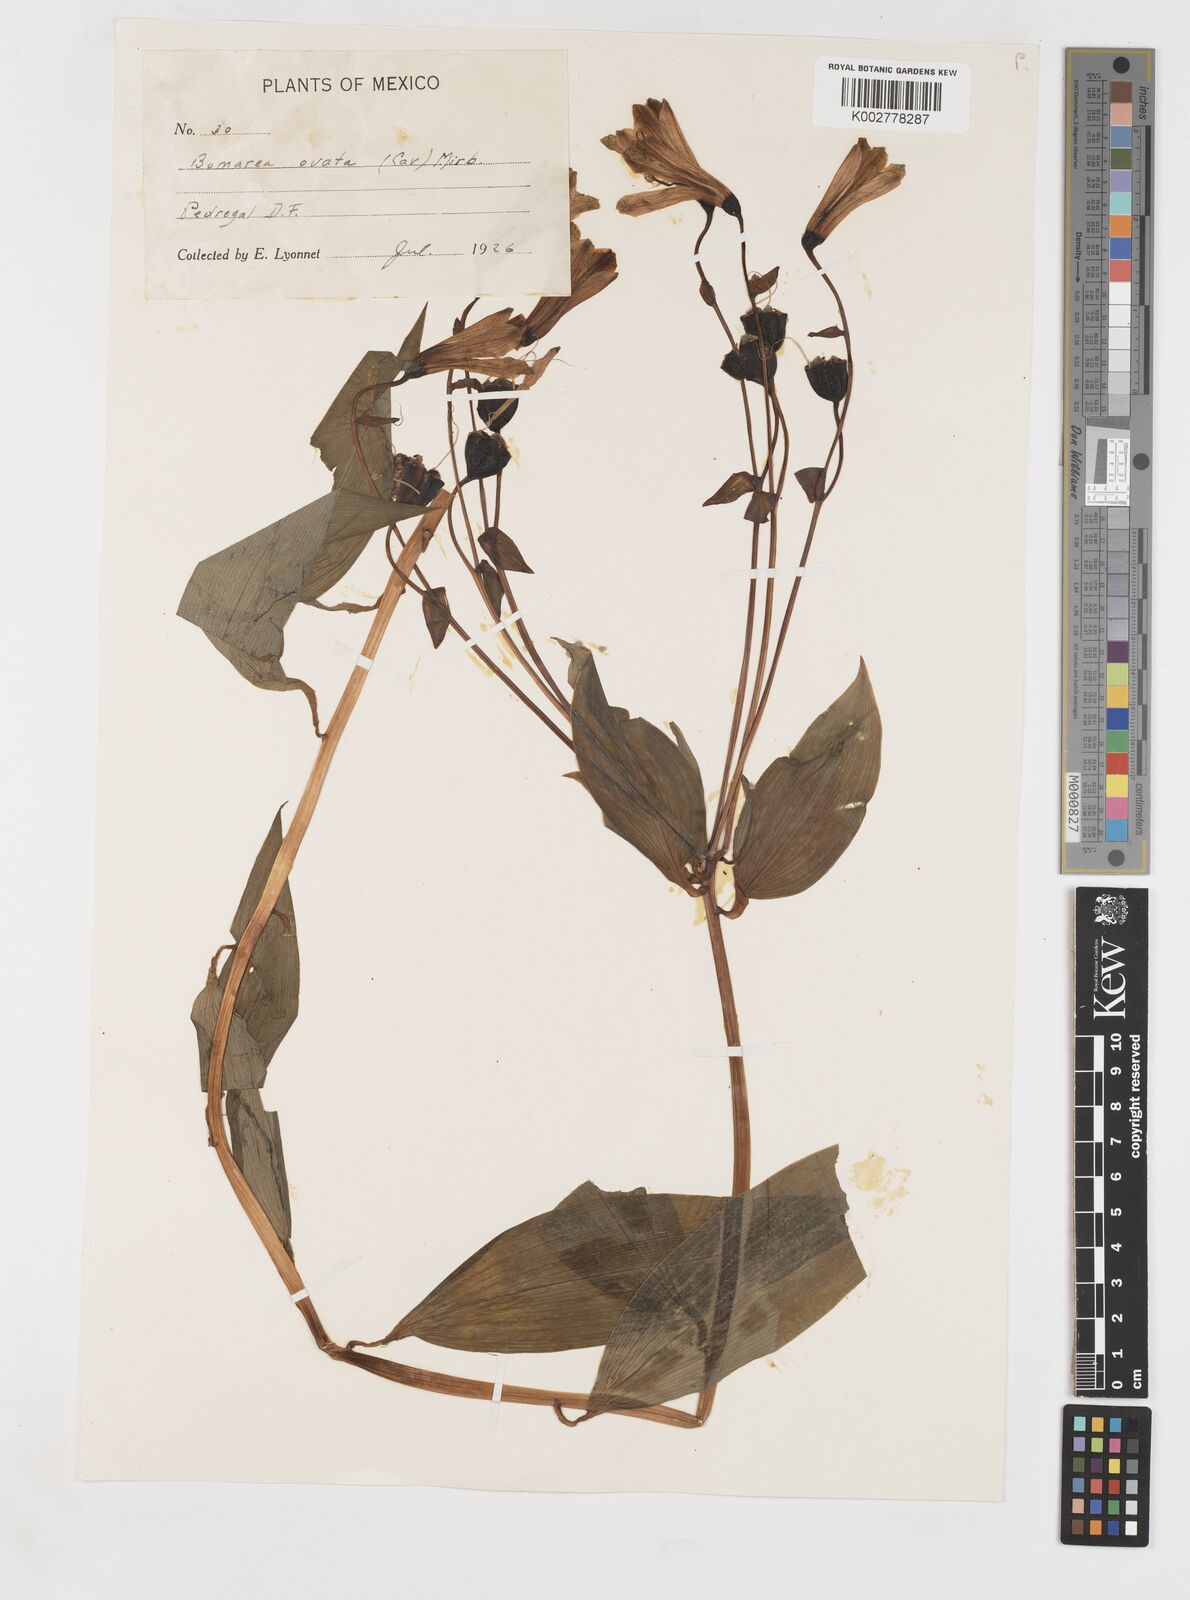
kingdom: Plantae
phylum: Tracheophyta
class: Liliopsida
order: Liliales
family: Alstroemeriaceae
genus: Bomarea
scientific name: Bomarea edulis
